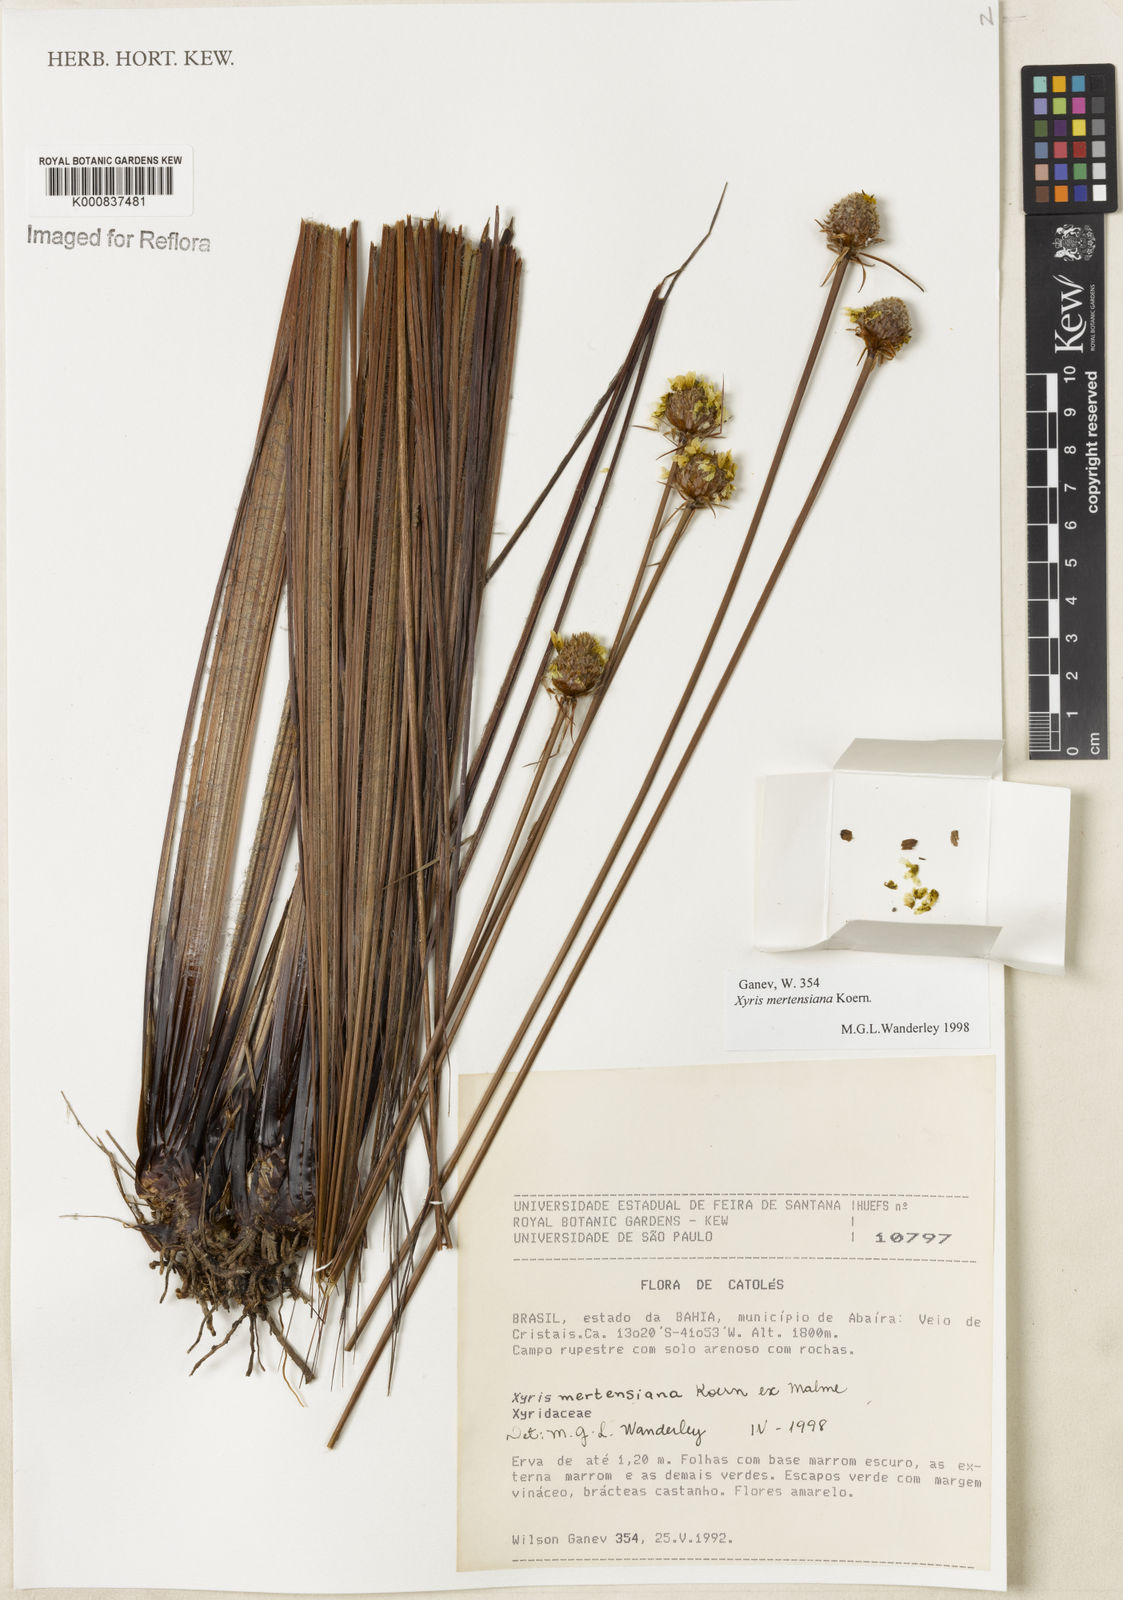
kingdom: Plantae
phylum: Tracheophyta
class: Liliopsida
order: Poales
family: Xyridaceae
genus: Xyris
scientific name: Xyris
